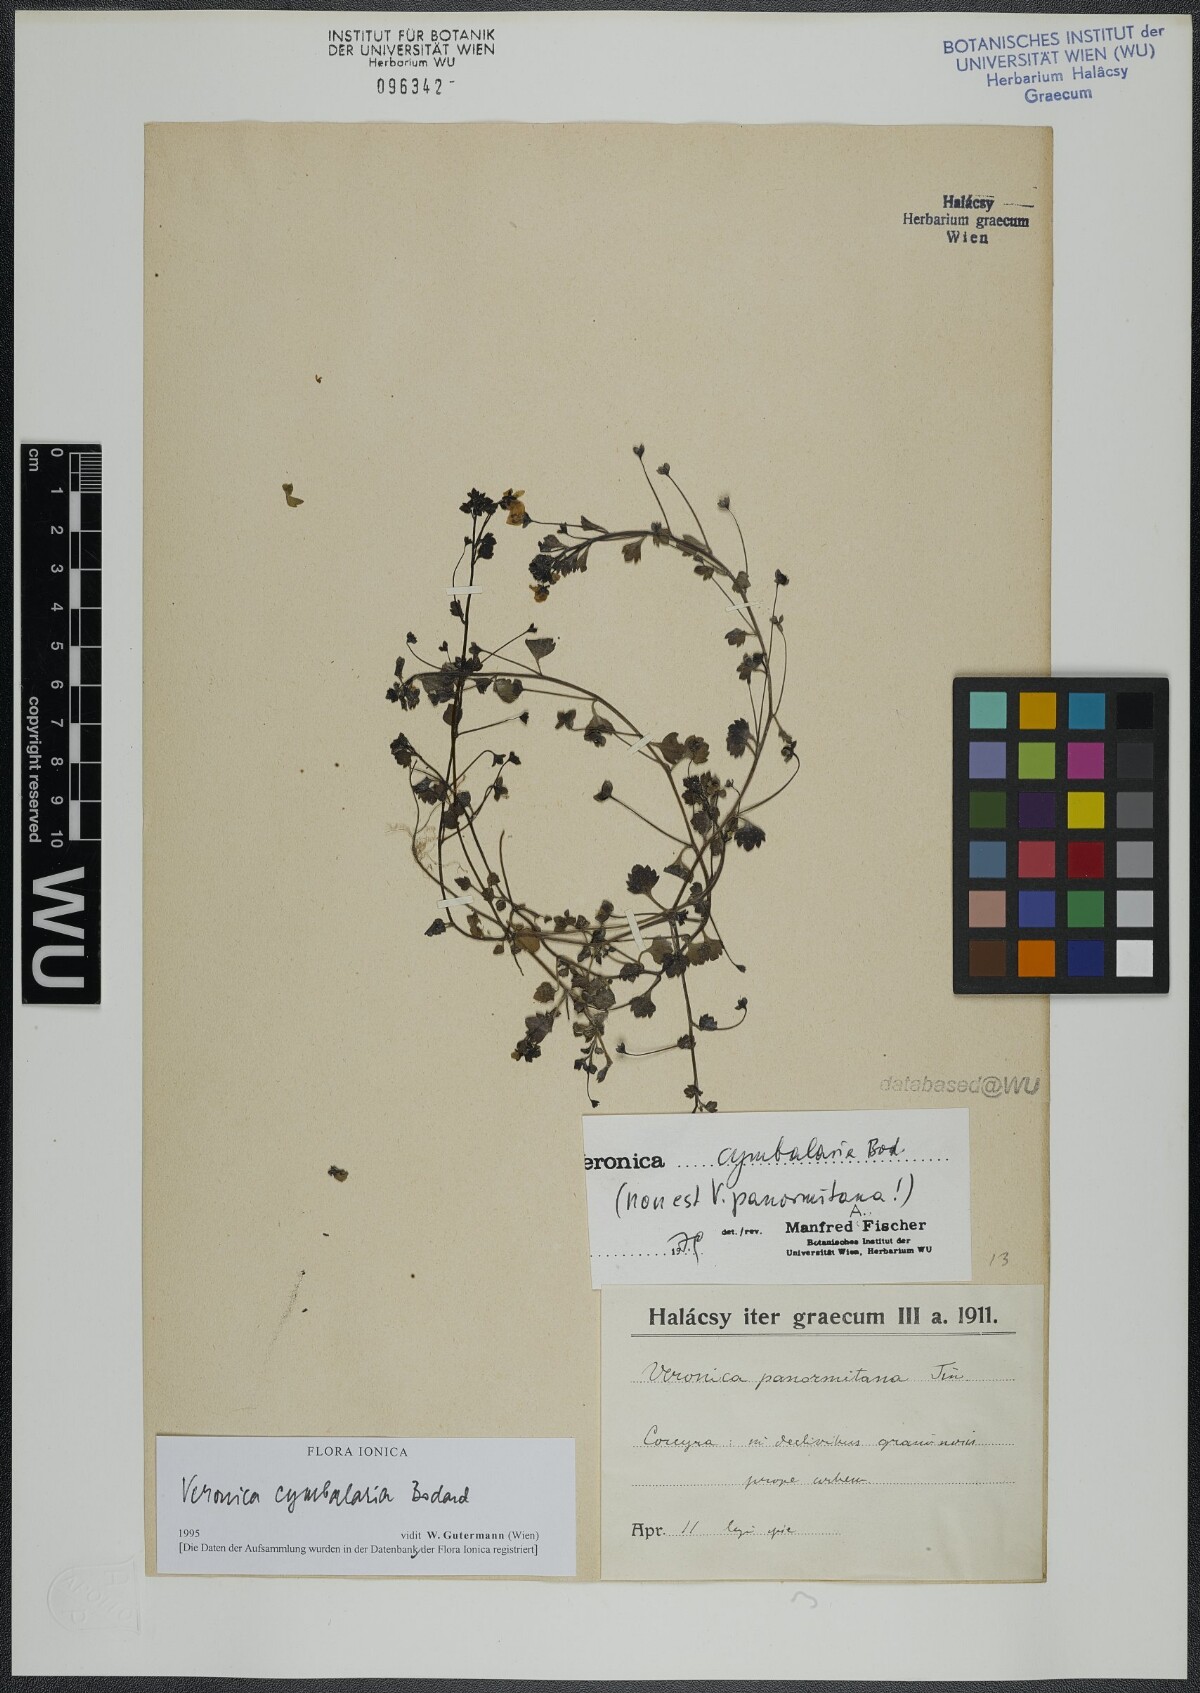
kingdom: Plantae
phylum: Tracheophyta
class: Magnoliopsida
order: Lamiales
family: Plantaginaceae
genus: Veronica
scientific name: Veronica cymbalaria
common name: Pale speedwell
